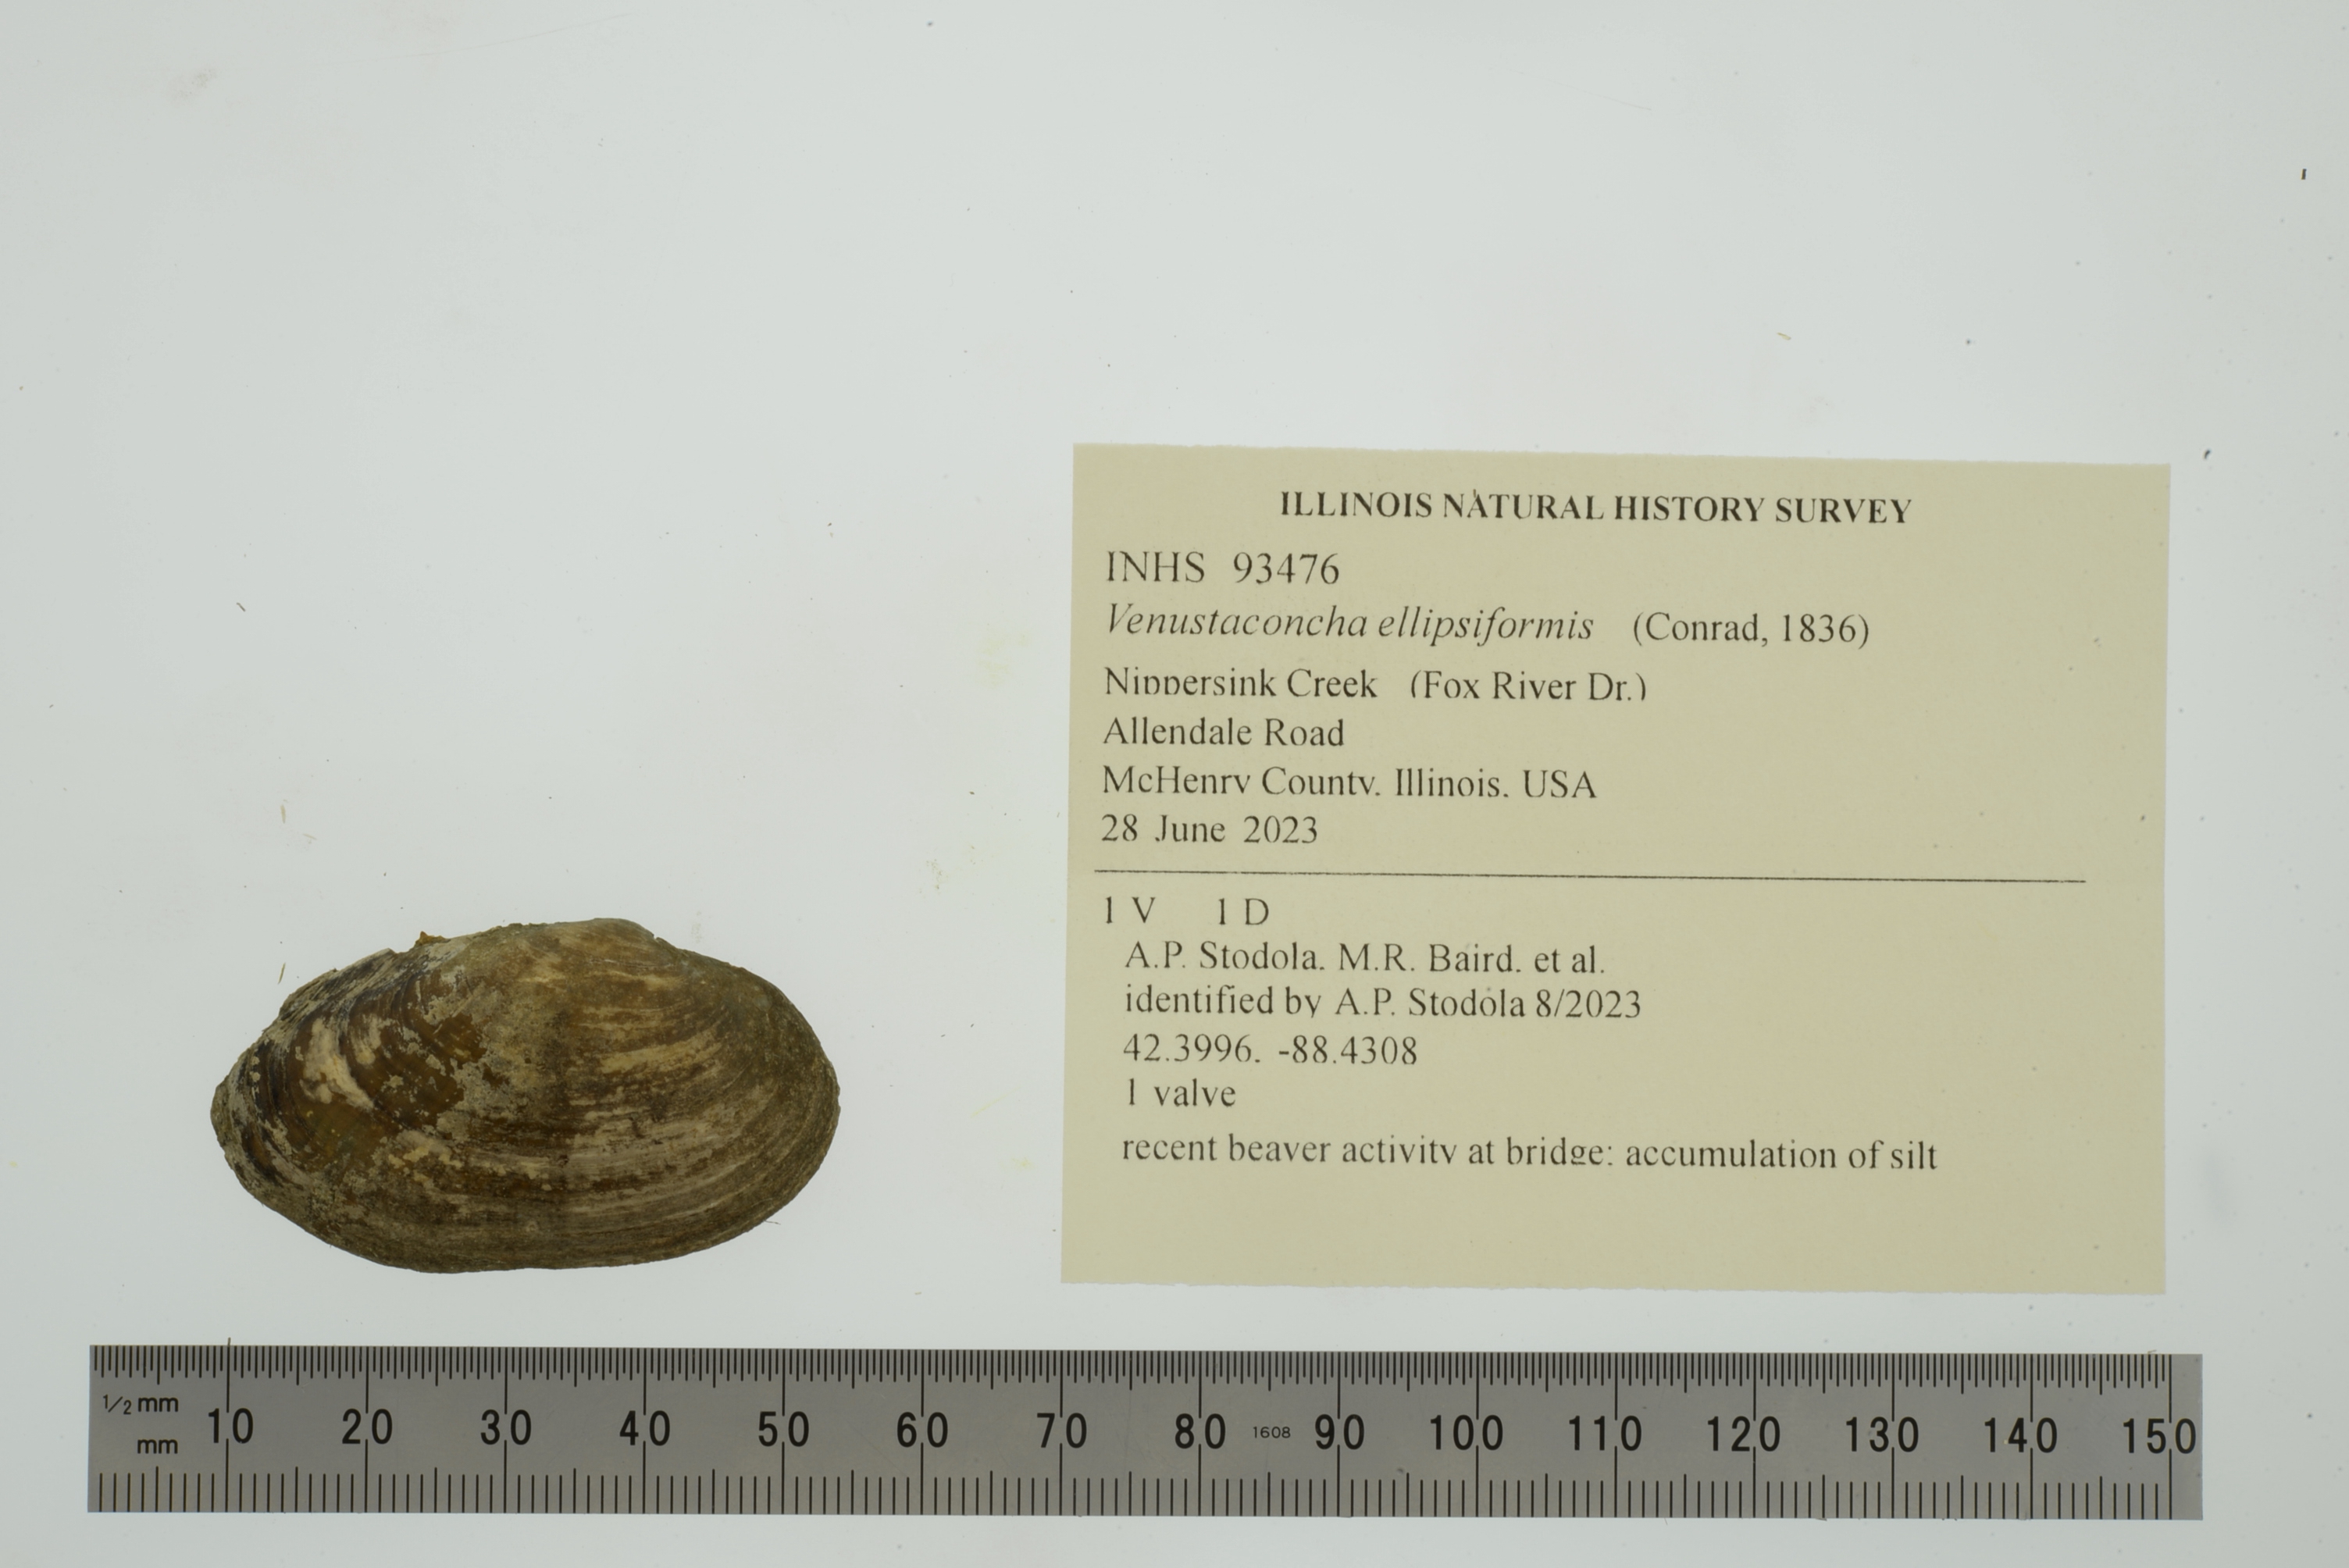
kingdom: Animalia
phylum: Mollusca
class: Bivalvia
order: Unionida
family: Unionidae
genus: Venustaconcha
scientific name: Venustaconcha ellipsiformis
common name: Ellipse
